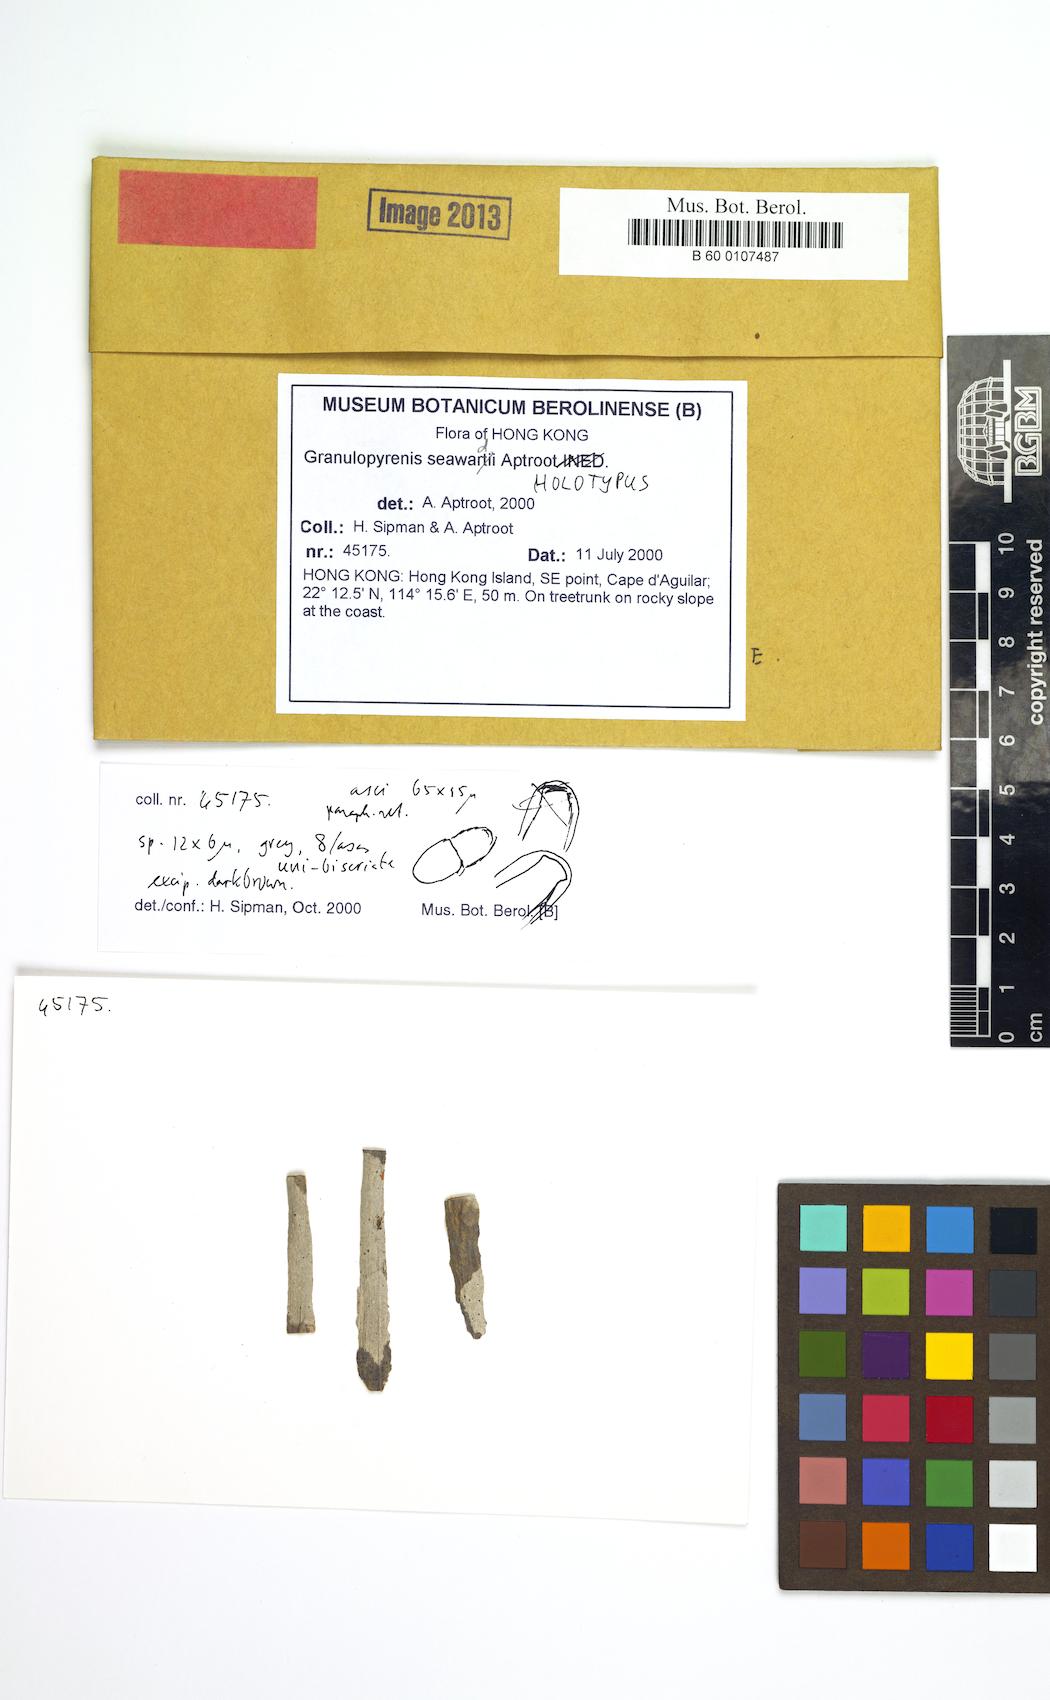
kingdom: Fungi
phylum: Ascomycota
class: Eurotiomycetes
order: Pyrenulales
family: Pyrenulaceae
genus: Granulopyrenis
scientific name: Granulopyrenis seawardii
